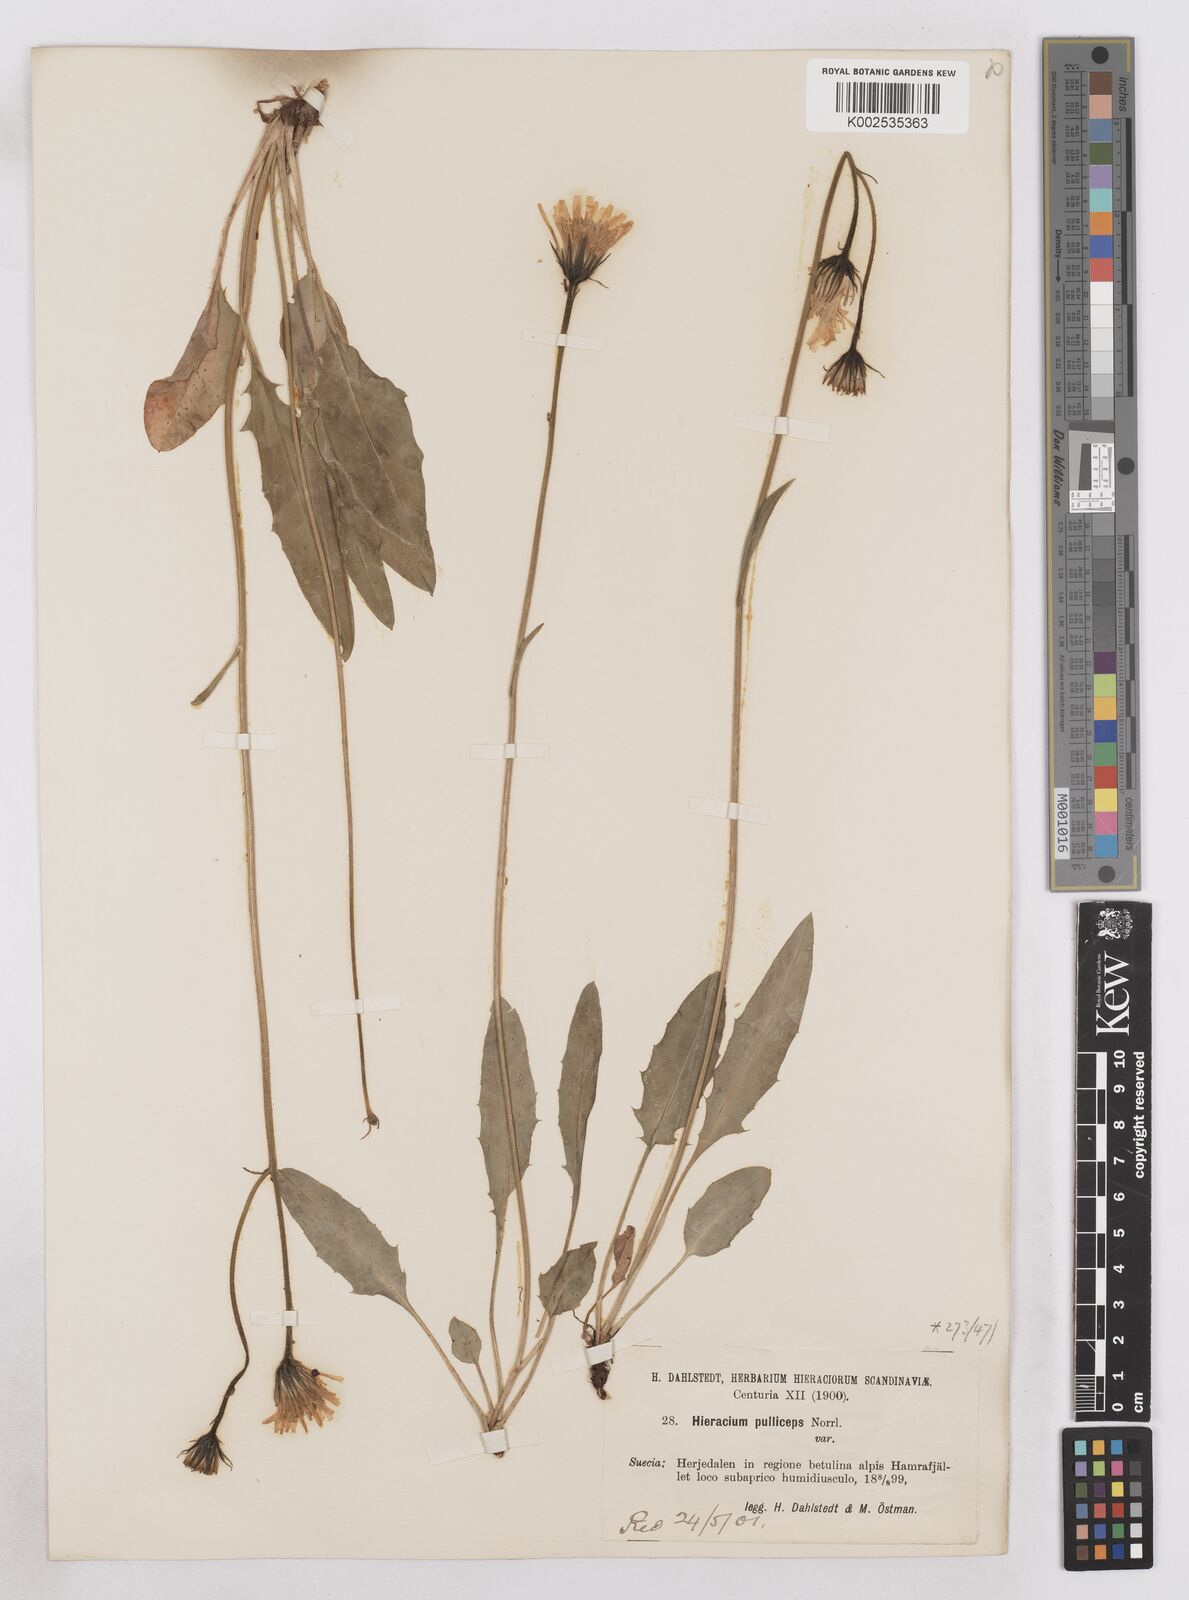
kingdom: Plantae
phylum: Tracheophyta
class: Magnoliopsida
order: Asterales
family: Asteraceae
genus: Hieracium
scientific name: Hieracium conspurcans
